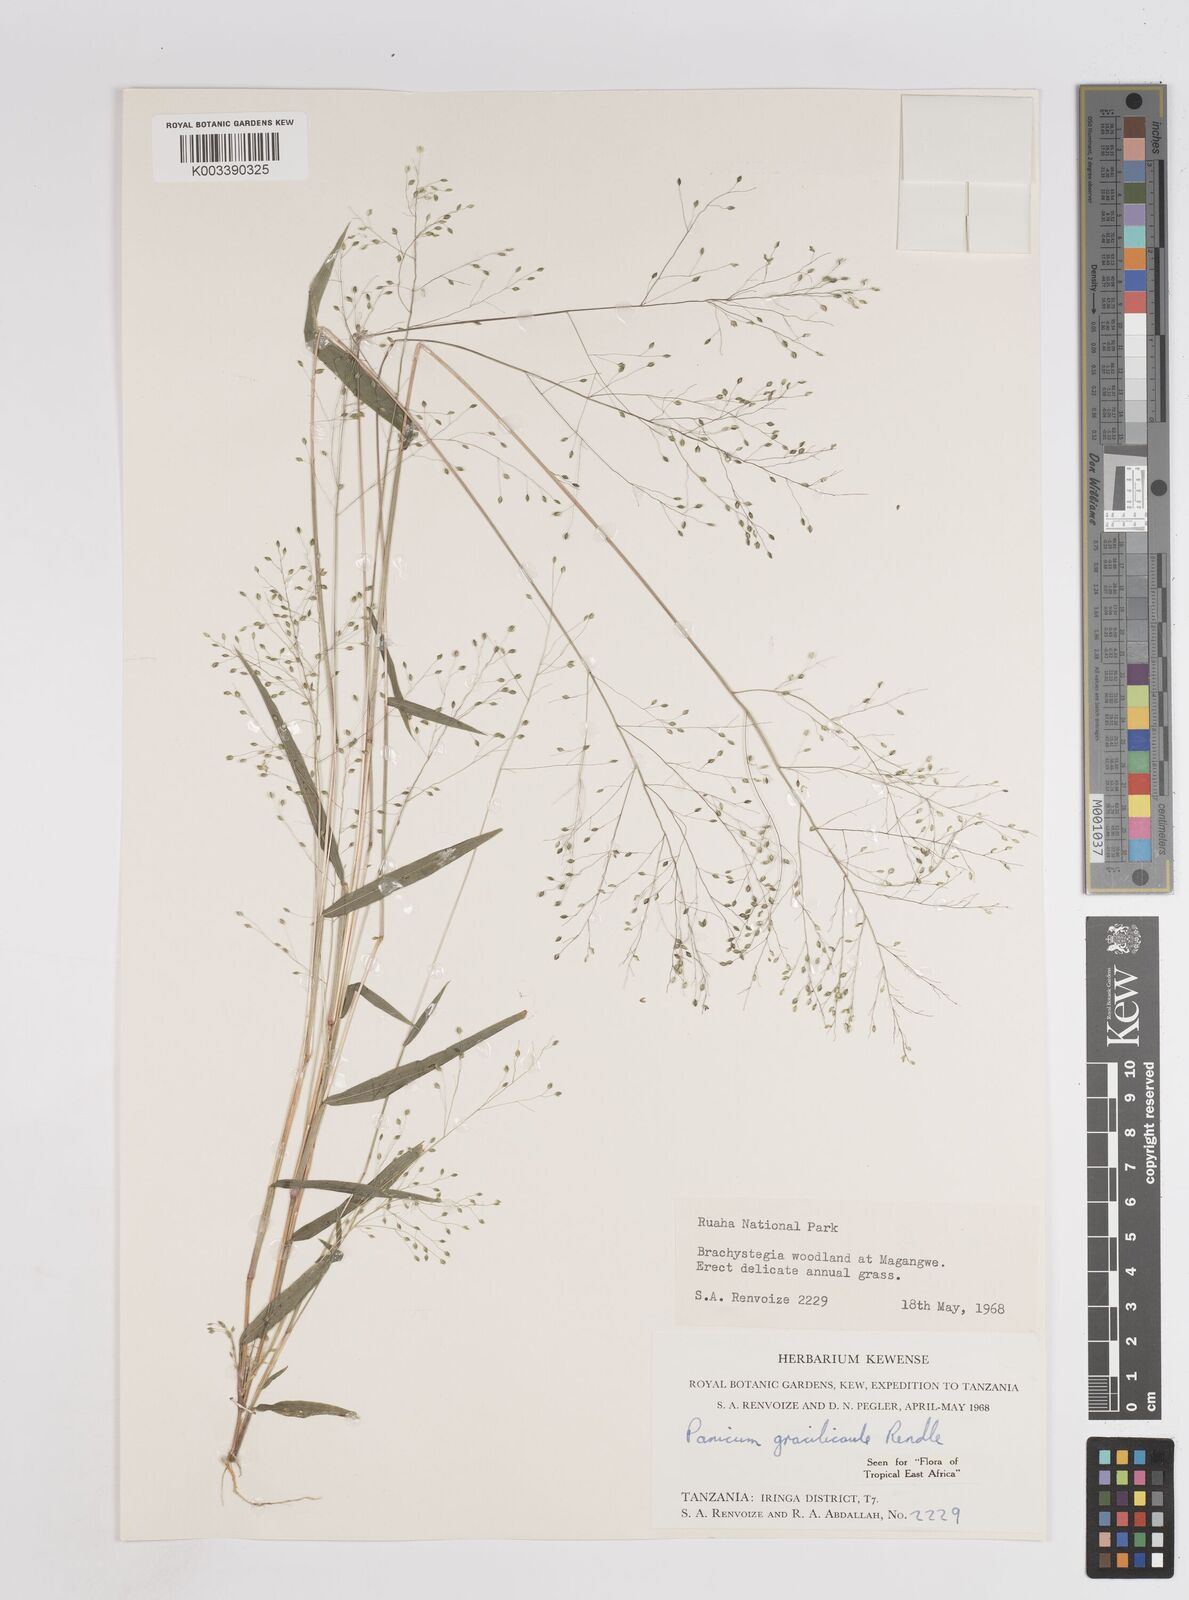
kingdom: Plantae
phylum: Tracheophyta
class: Liliopsida
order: Poales
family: Poaceae
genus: Trichanthecium
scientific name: Trichanthecium gracilicaule
